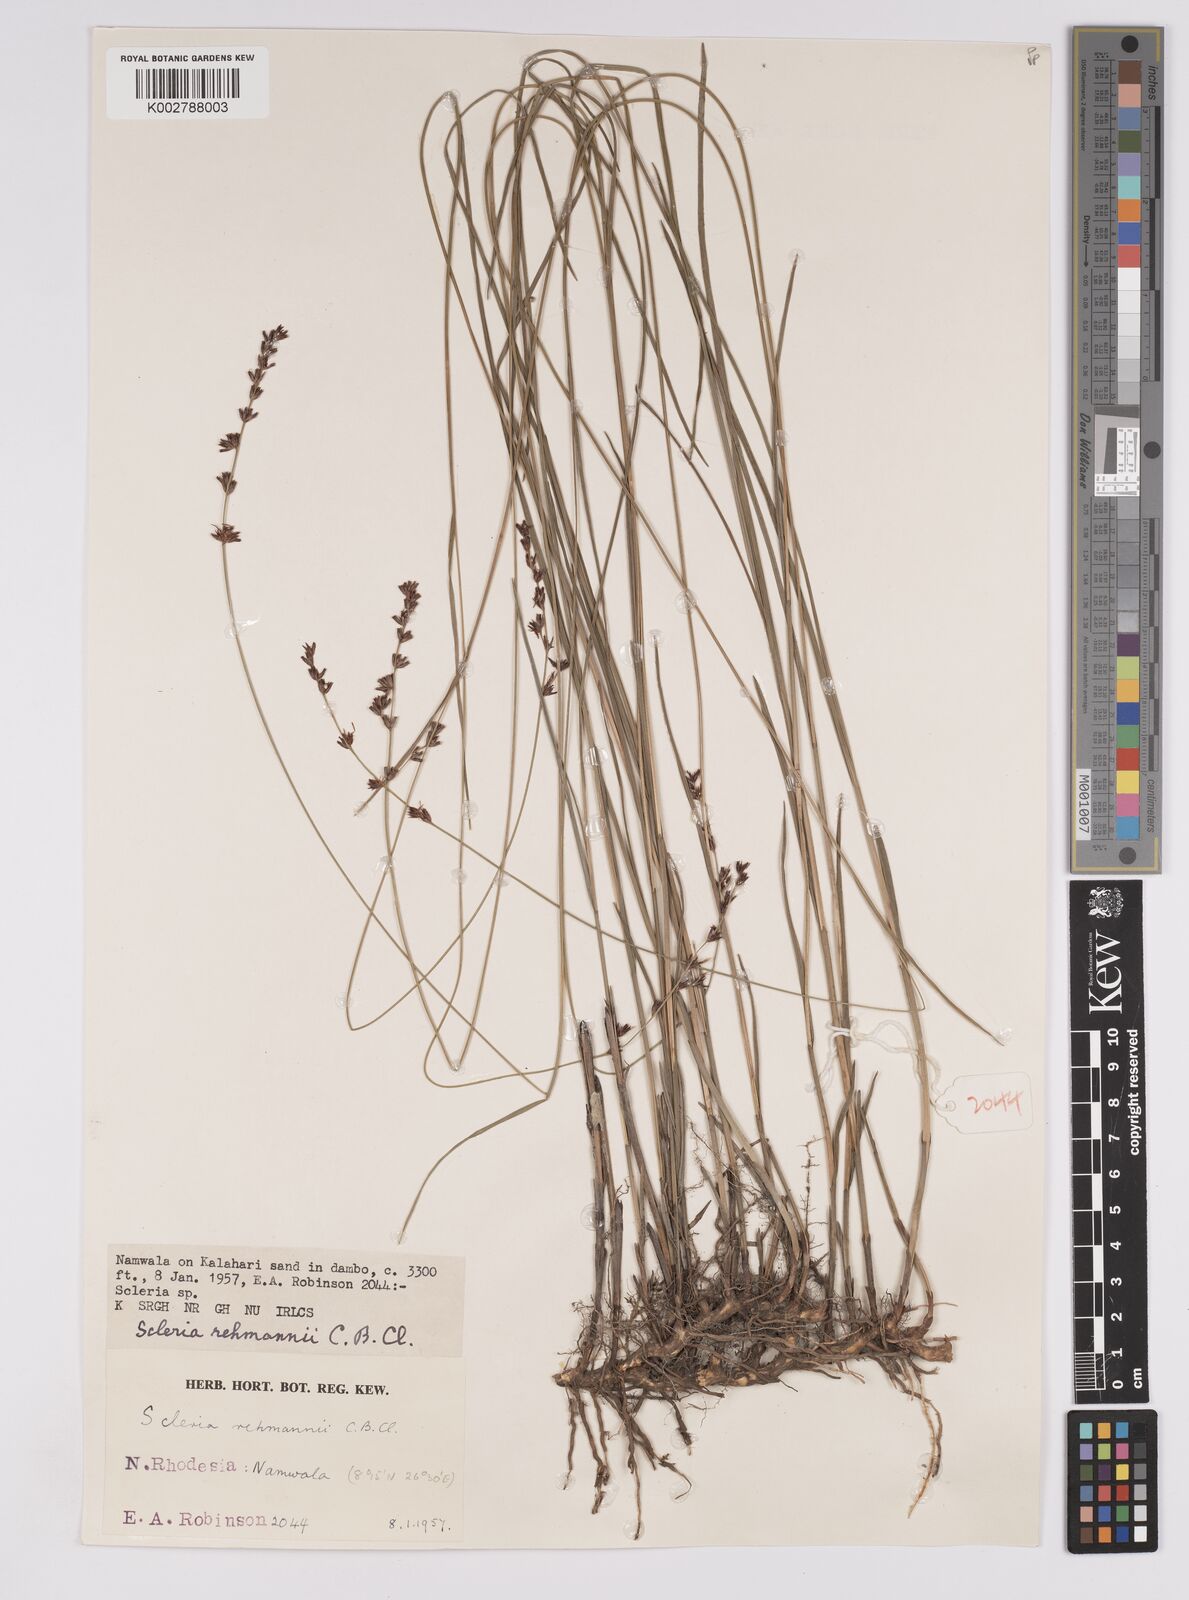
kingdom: Plantae
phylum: Tracheophyta
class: Liliopsida
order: Poales
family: Cyperaceae
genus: Scleria
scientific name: Scleria rehmannii
